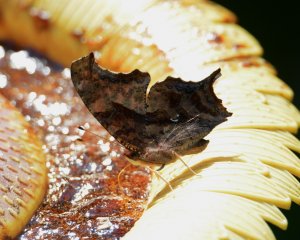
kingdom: Animalia
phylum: Arthropoda
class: Insecta
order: Lepidoptera
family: Nymphalidae
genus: Polygonia
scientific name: Polygonia interrogationis
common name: Question Mark
